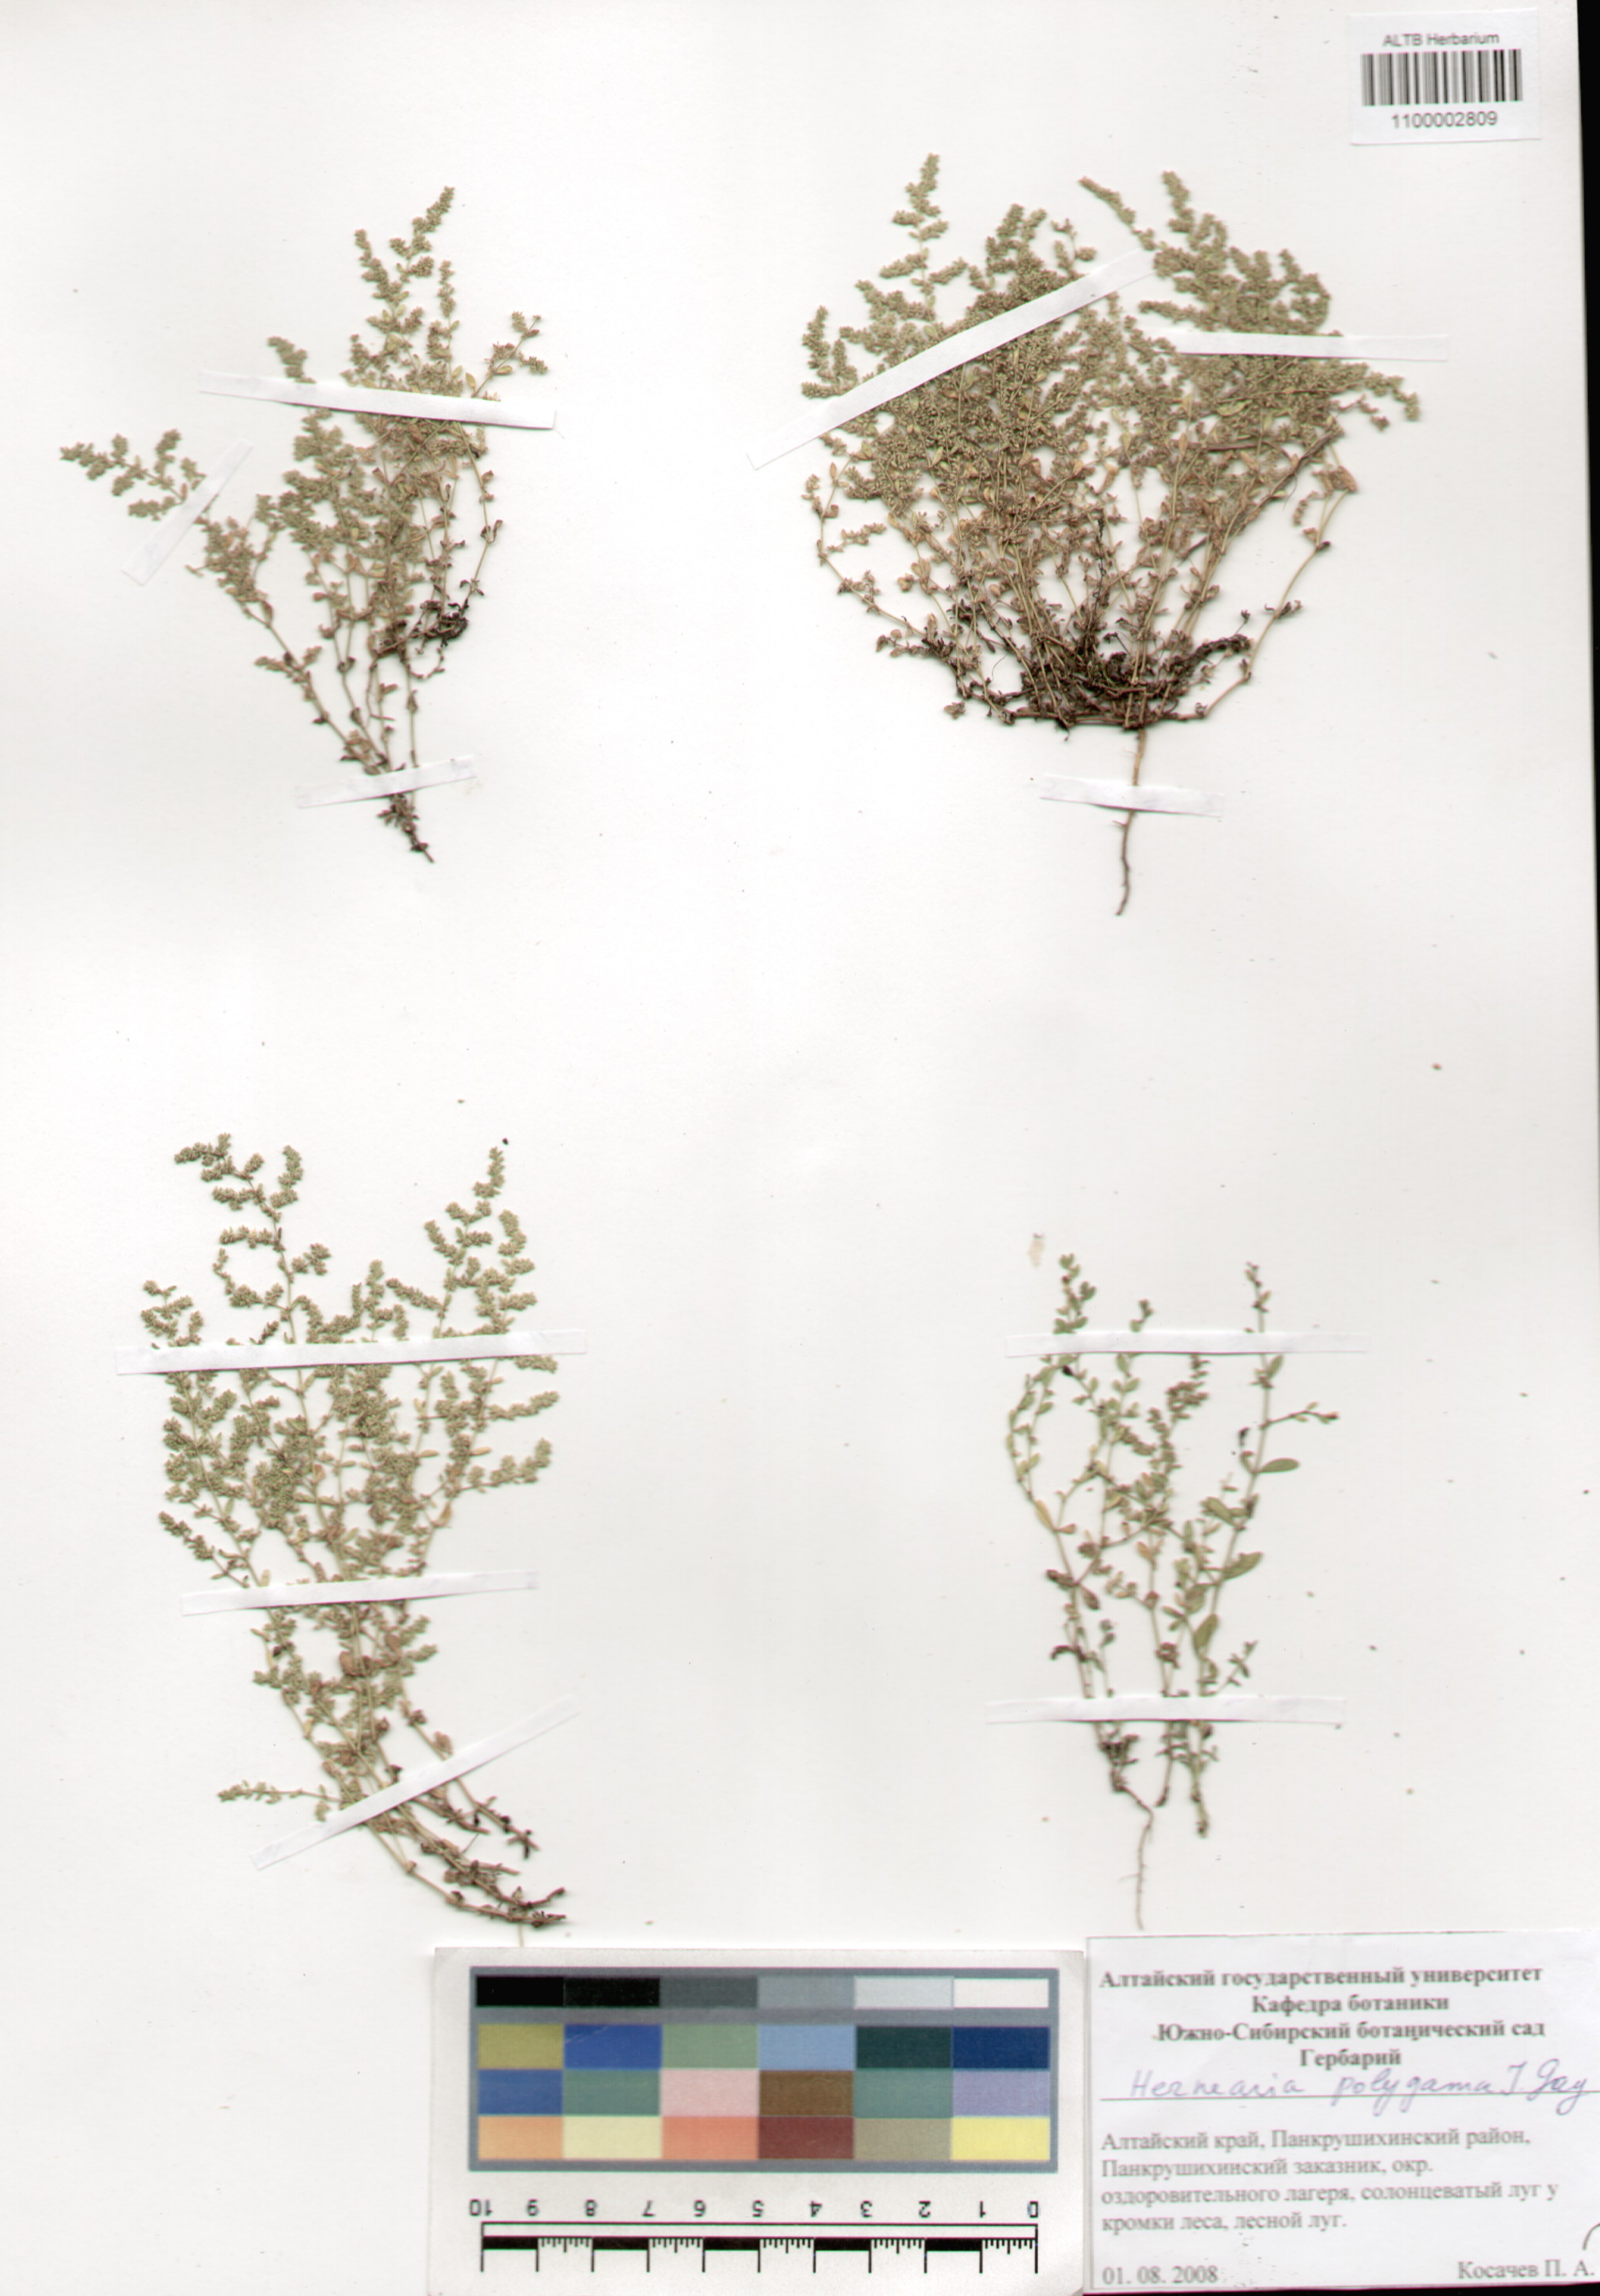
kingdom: Plantae
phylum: Tracheophyta
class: Magnoliopsida
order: Caryophyllales
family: Caryophyllaceae
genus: Herniaria
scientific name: Herniaria polygama
